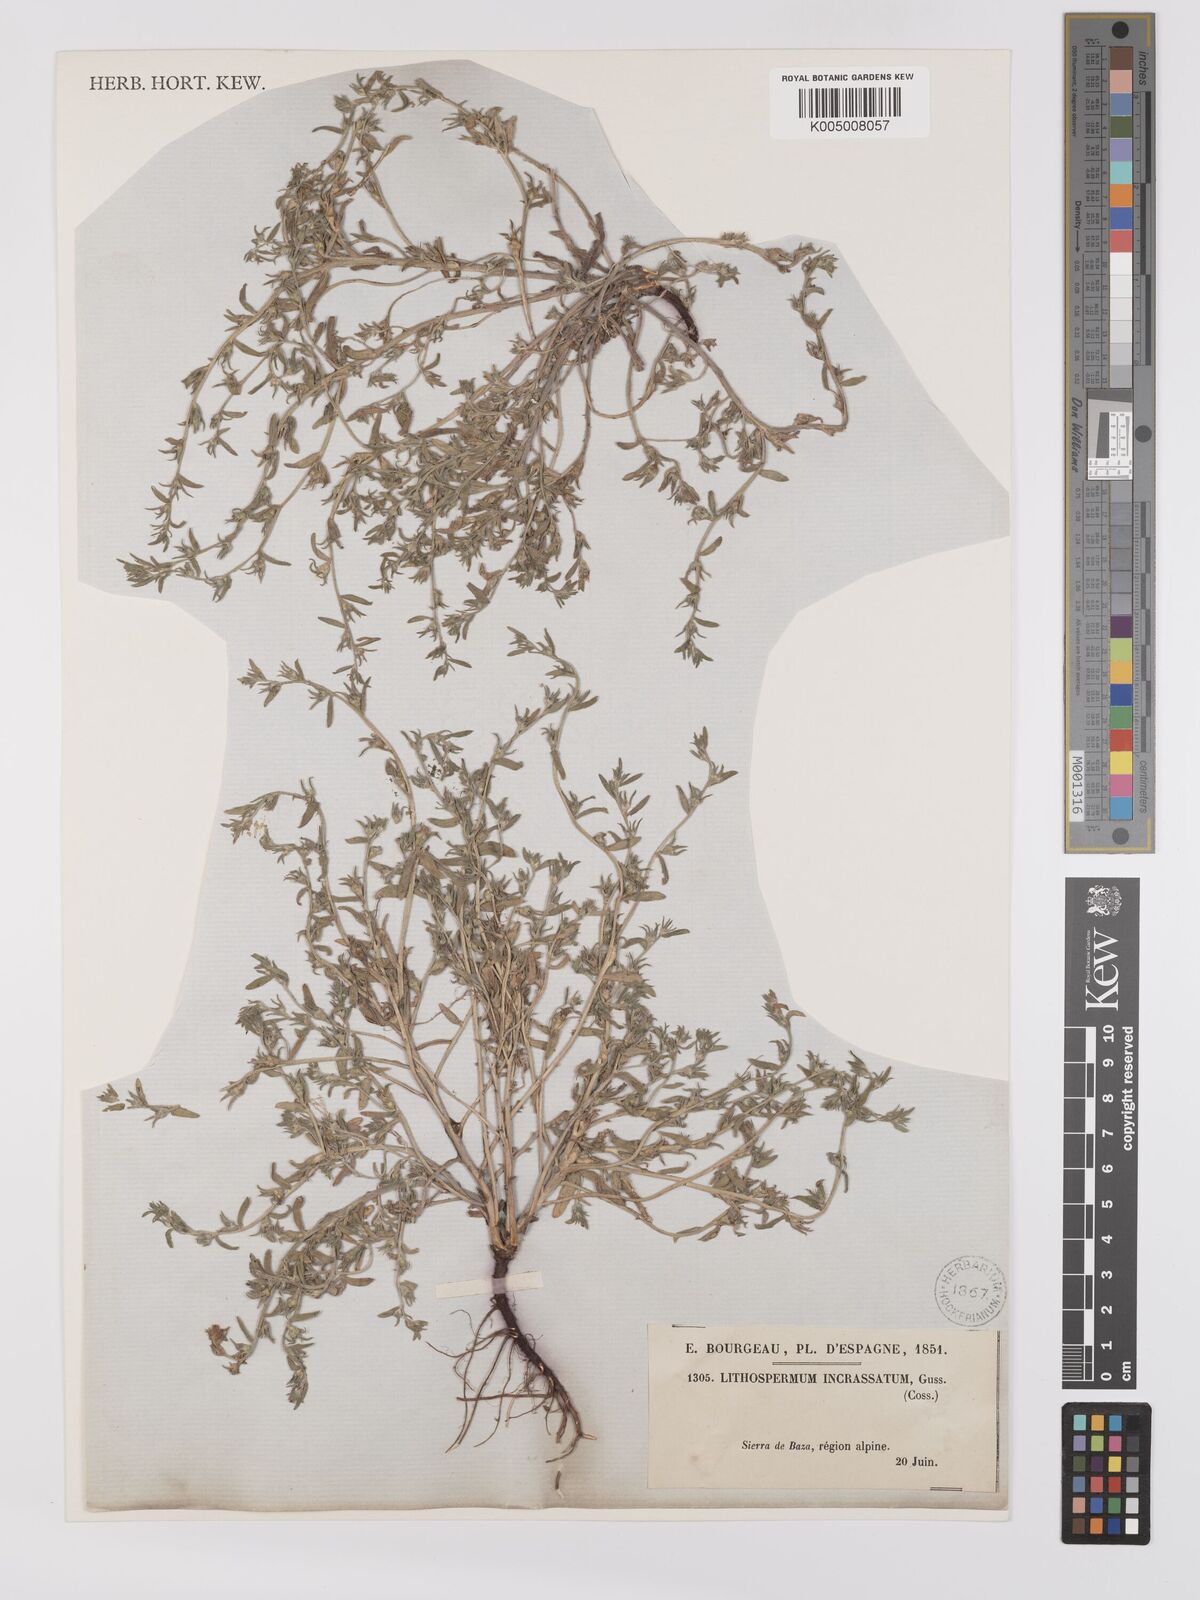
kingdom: Plantae
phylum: Tracheophyta
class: Magnoliopsida
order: Boraginales
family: Boraginaceae
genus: Buglossoides
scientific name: Buglossoides incrassata
